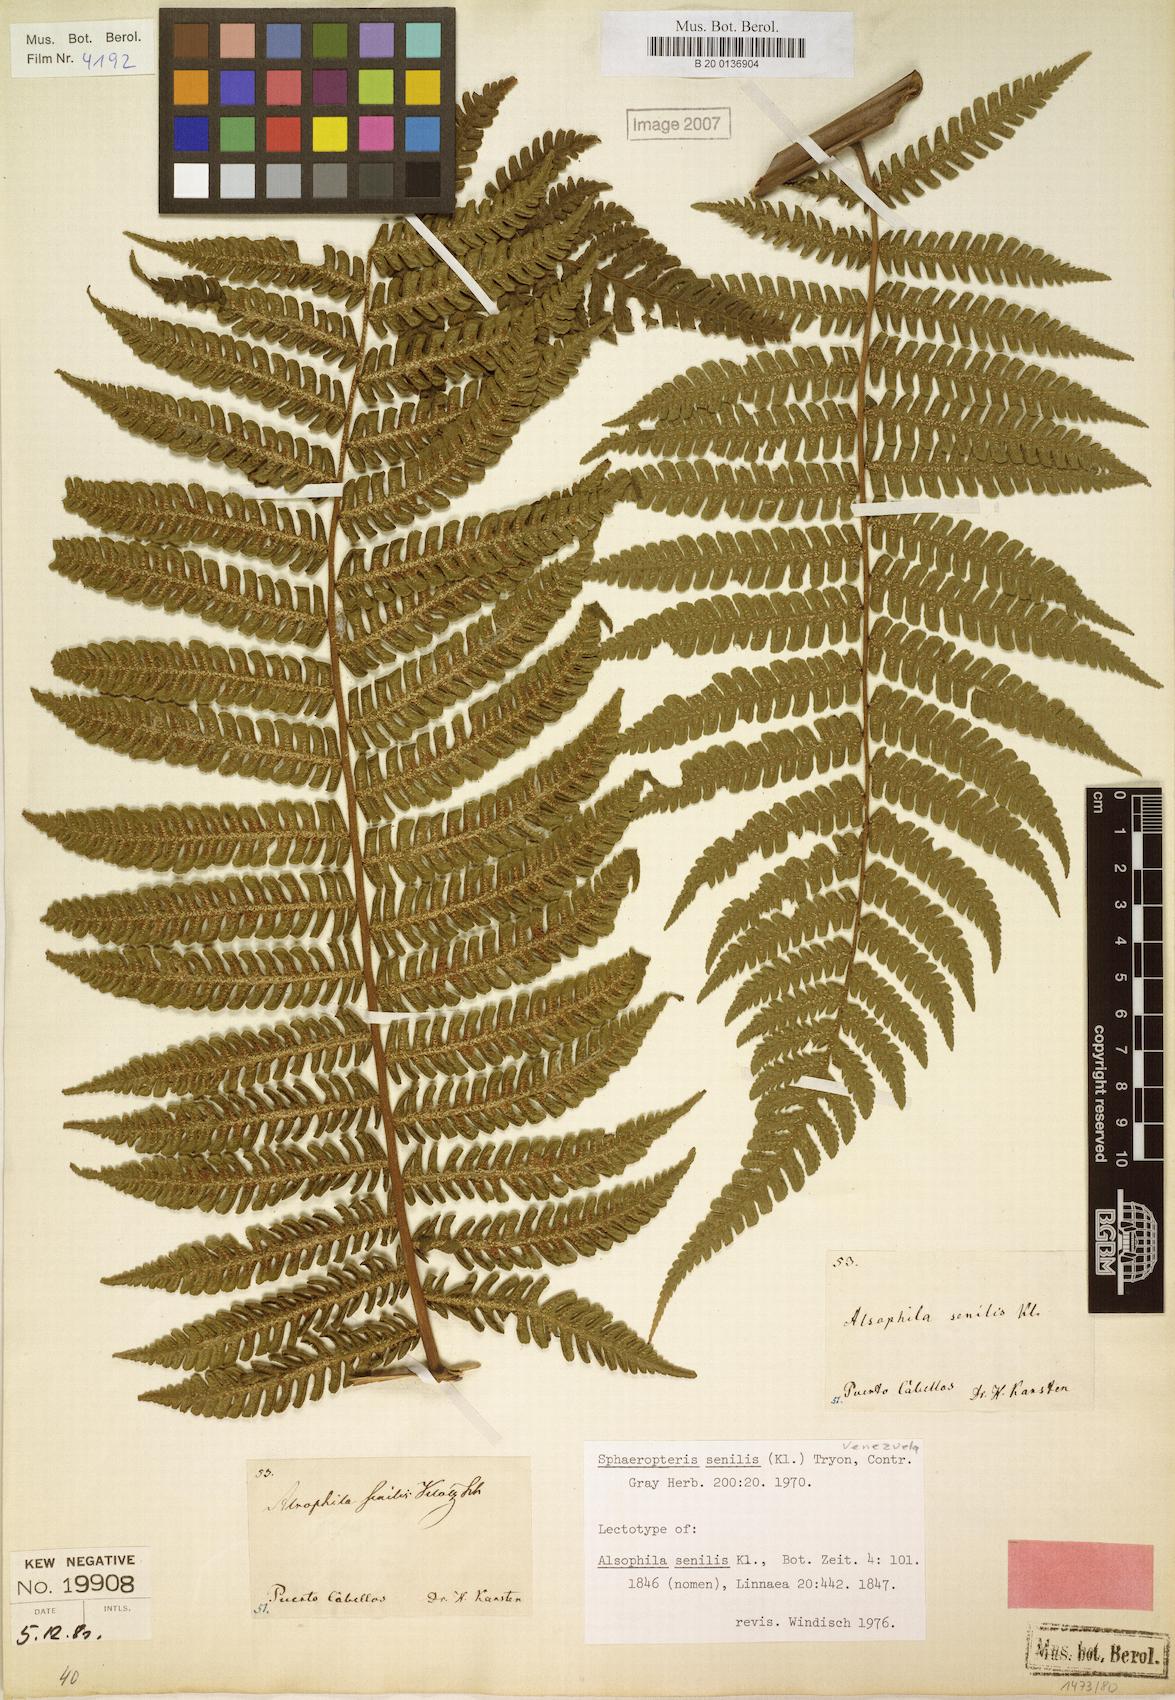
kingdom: Plantae
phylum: Tracheophyta
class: Polypodiopsida
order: Cyatheales
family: Cyatheaceae
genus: Sphaeropteris
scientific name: Sphaeropteris senilis
